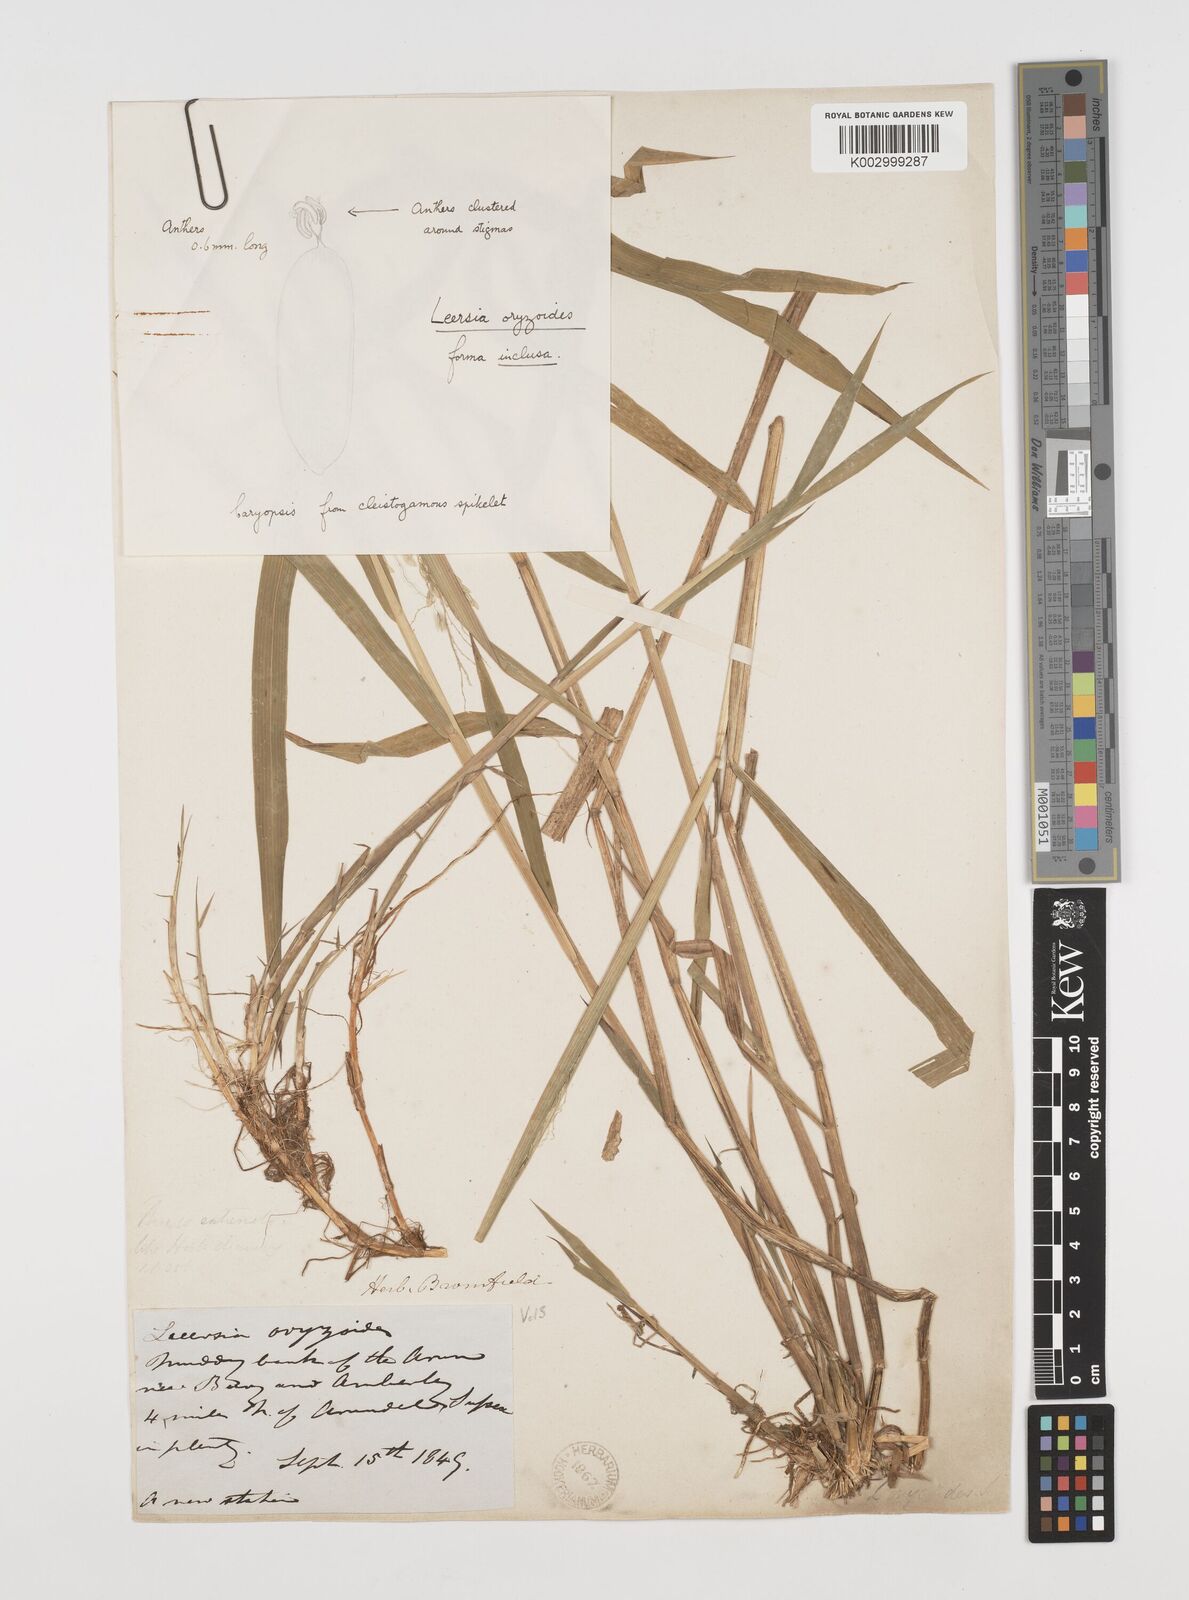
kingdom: Plantae
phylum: Tracheophyta
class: Liliopsida
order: Poales
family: Poaceae
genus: Leersia
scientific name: Leersia oryzoides
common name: Cut-grass
